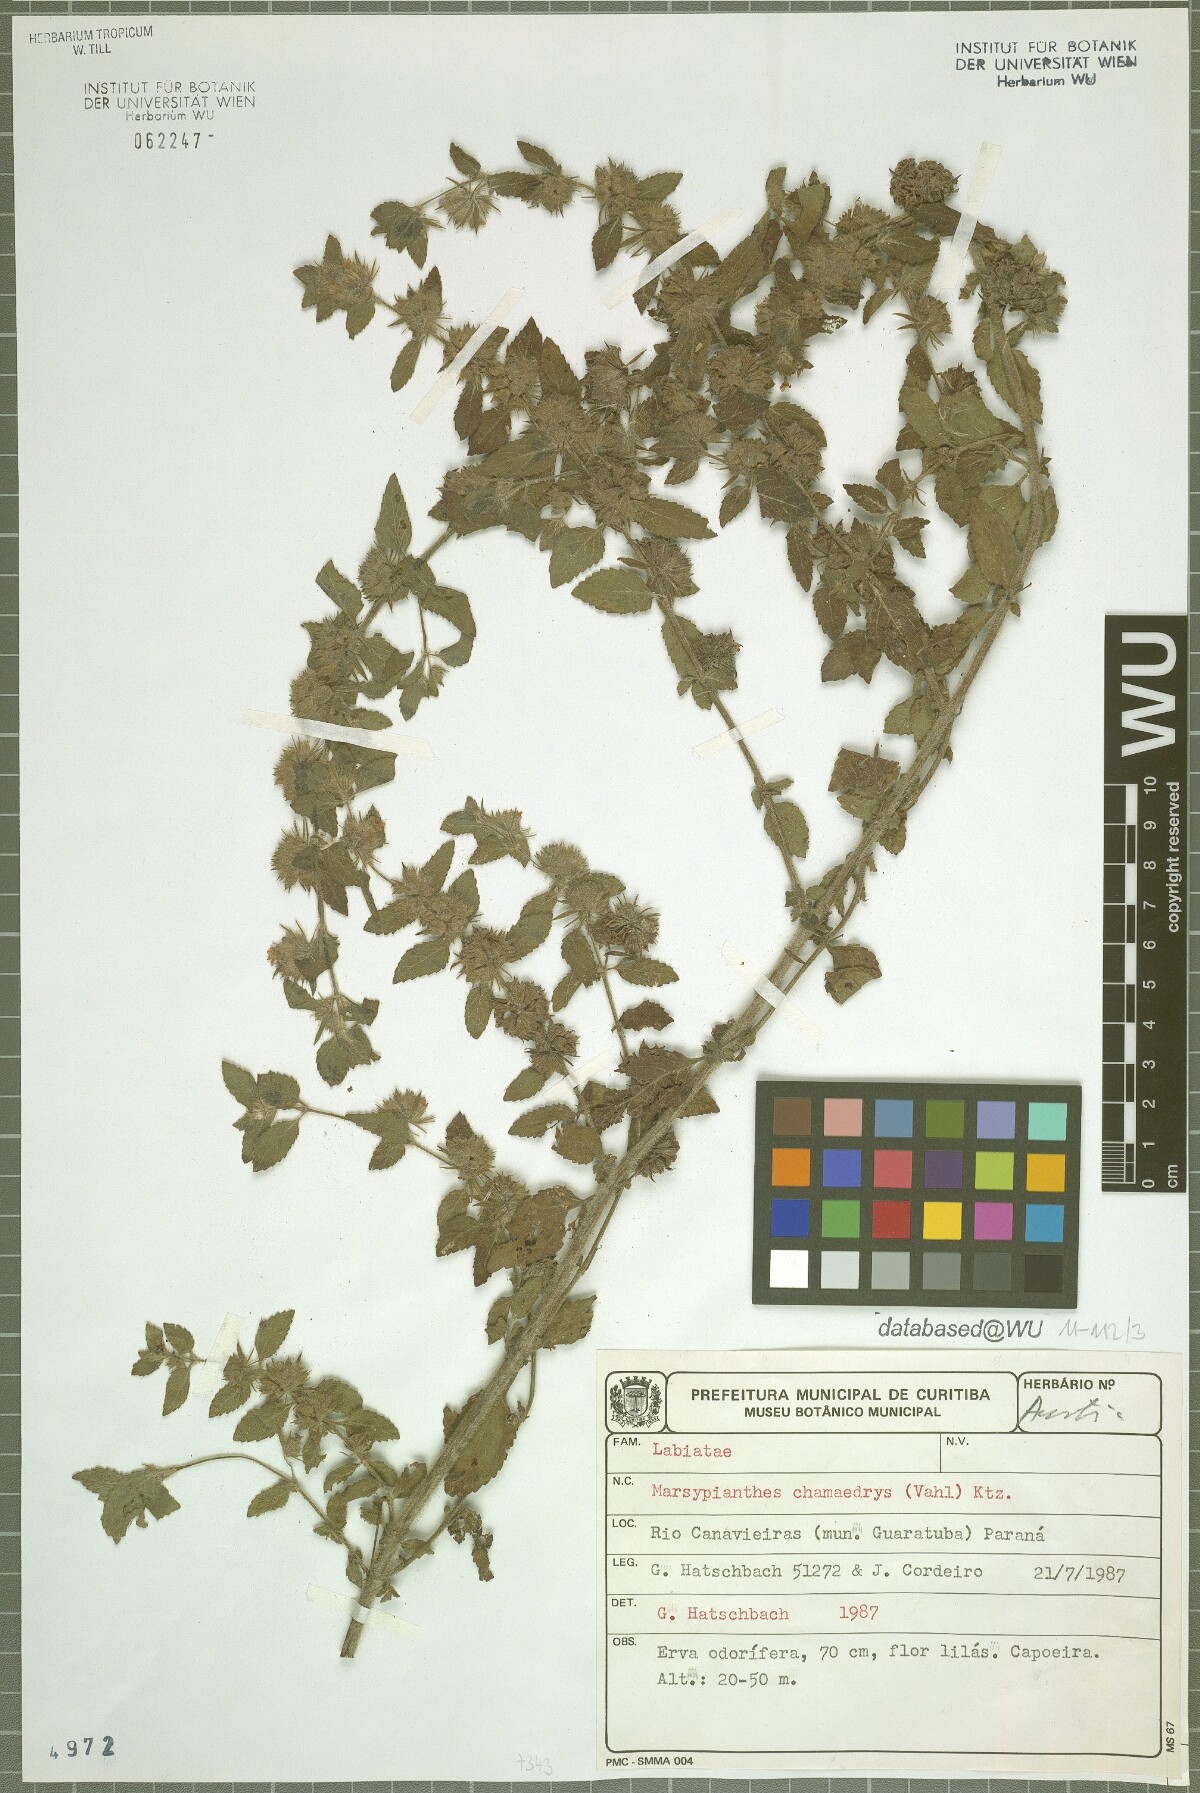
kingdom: Plantae
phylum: Tracheophyta
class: Magnoliopsida
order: Lamiales
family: Lamiaceae
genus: Marsypianthes
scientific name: Marsypianthes chamaedrys
